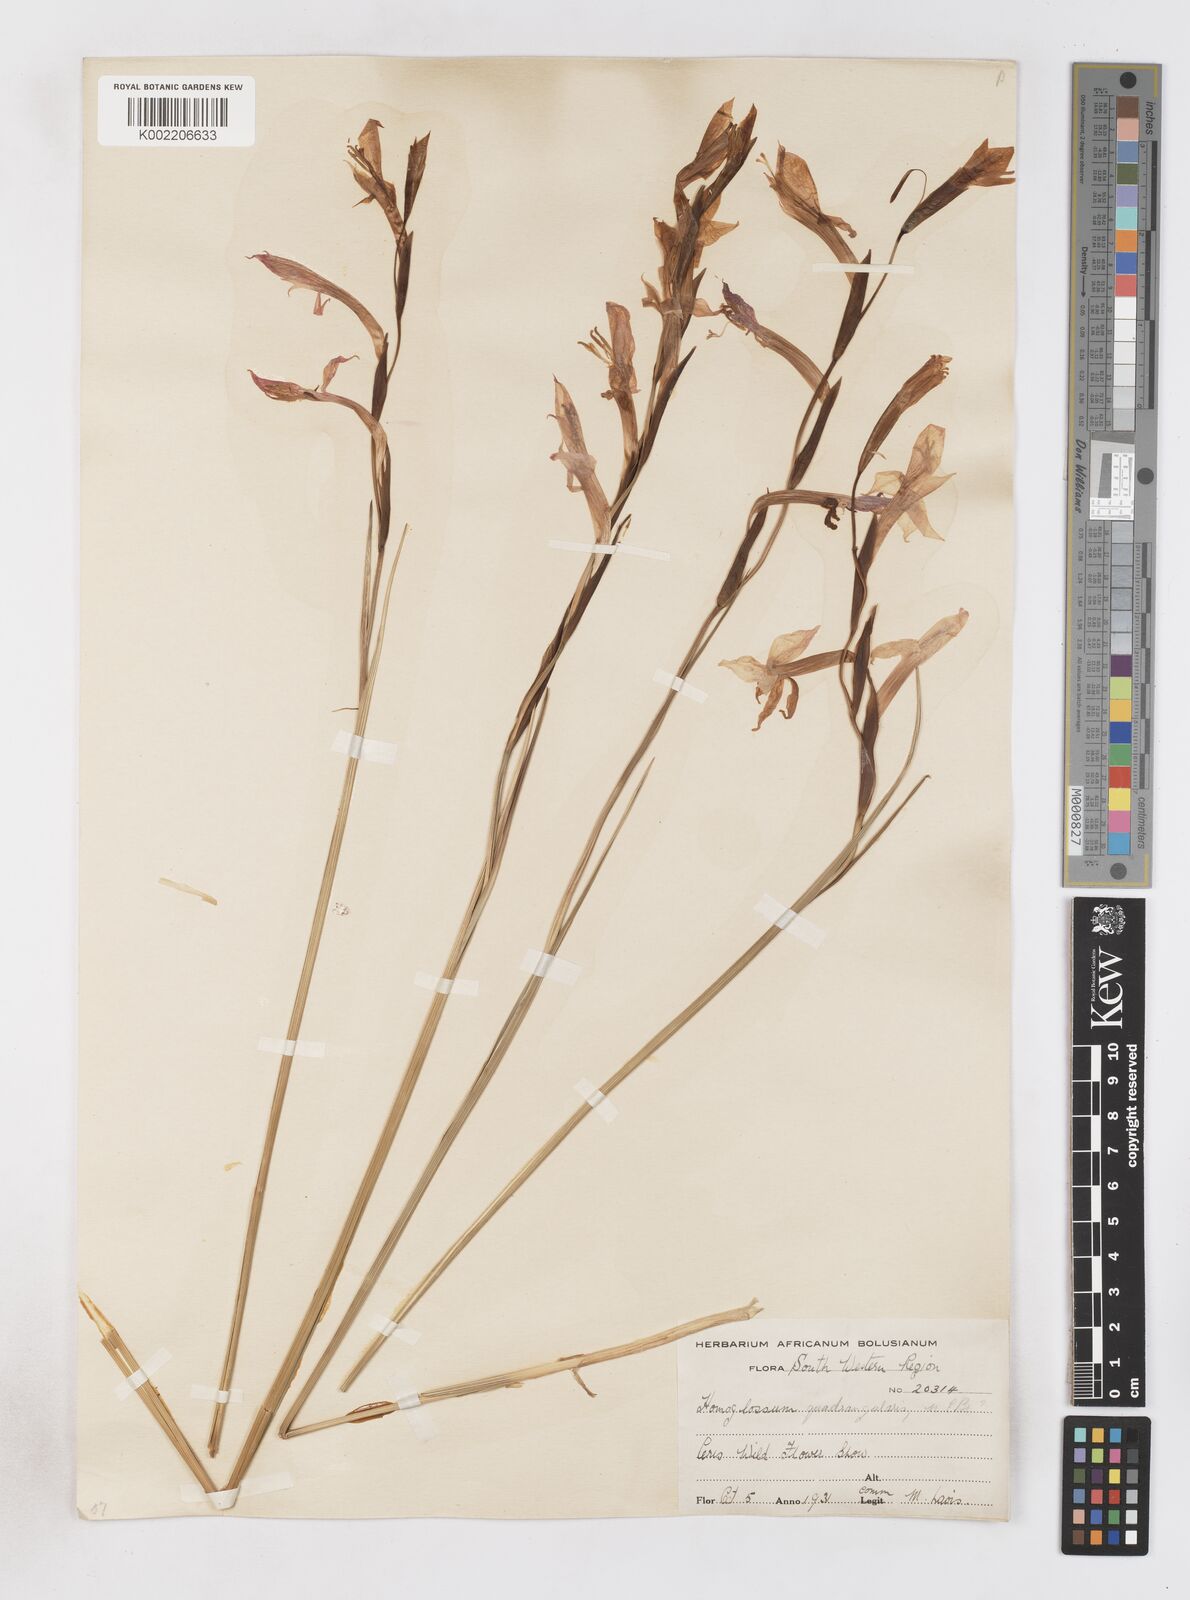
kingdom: Plantae
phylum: Tracheophyta
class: Liliopsida
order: Asparagales
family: Iridaceae
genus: Gladiolus
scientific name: Gladiolus quadrangularis
